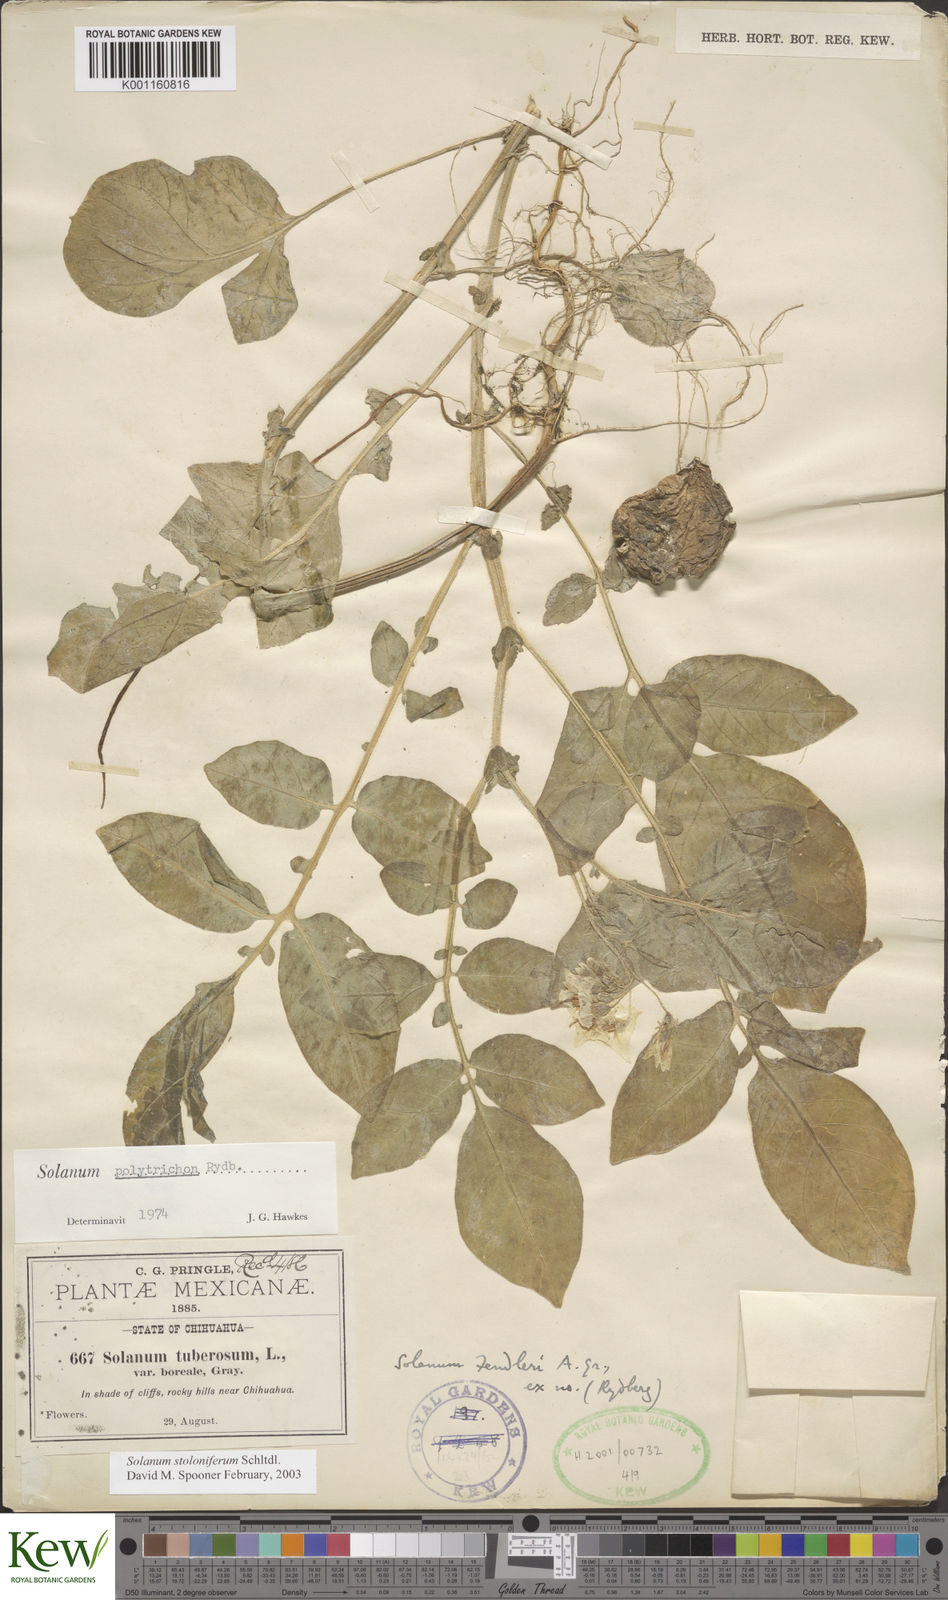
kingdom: Plantae
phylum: Tracheophyta
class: Magnoliopsida
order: Solanales
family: Solanaceae
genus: Solanum
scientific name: Solanum stoloniferum
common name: Fendler's nighshade
